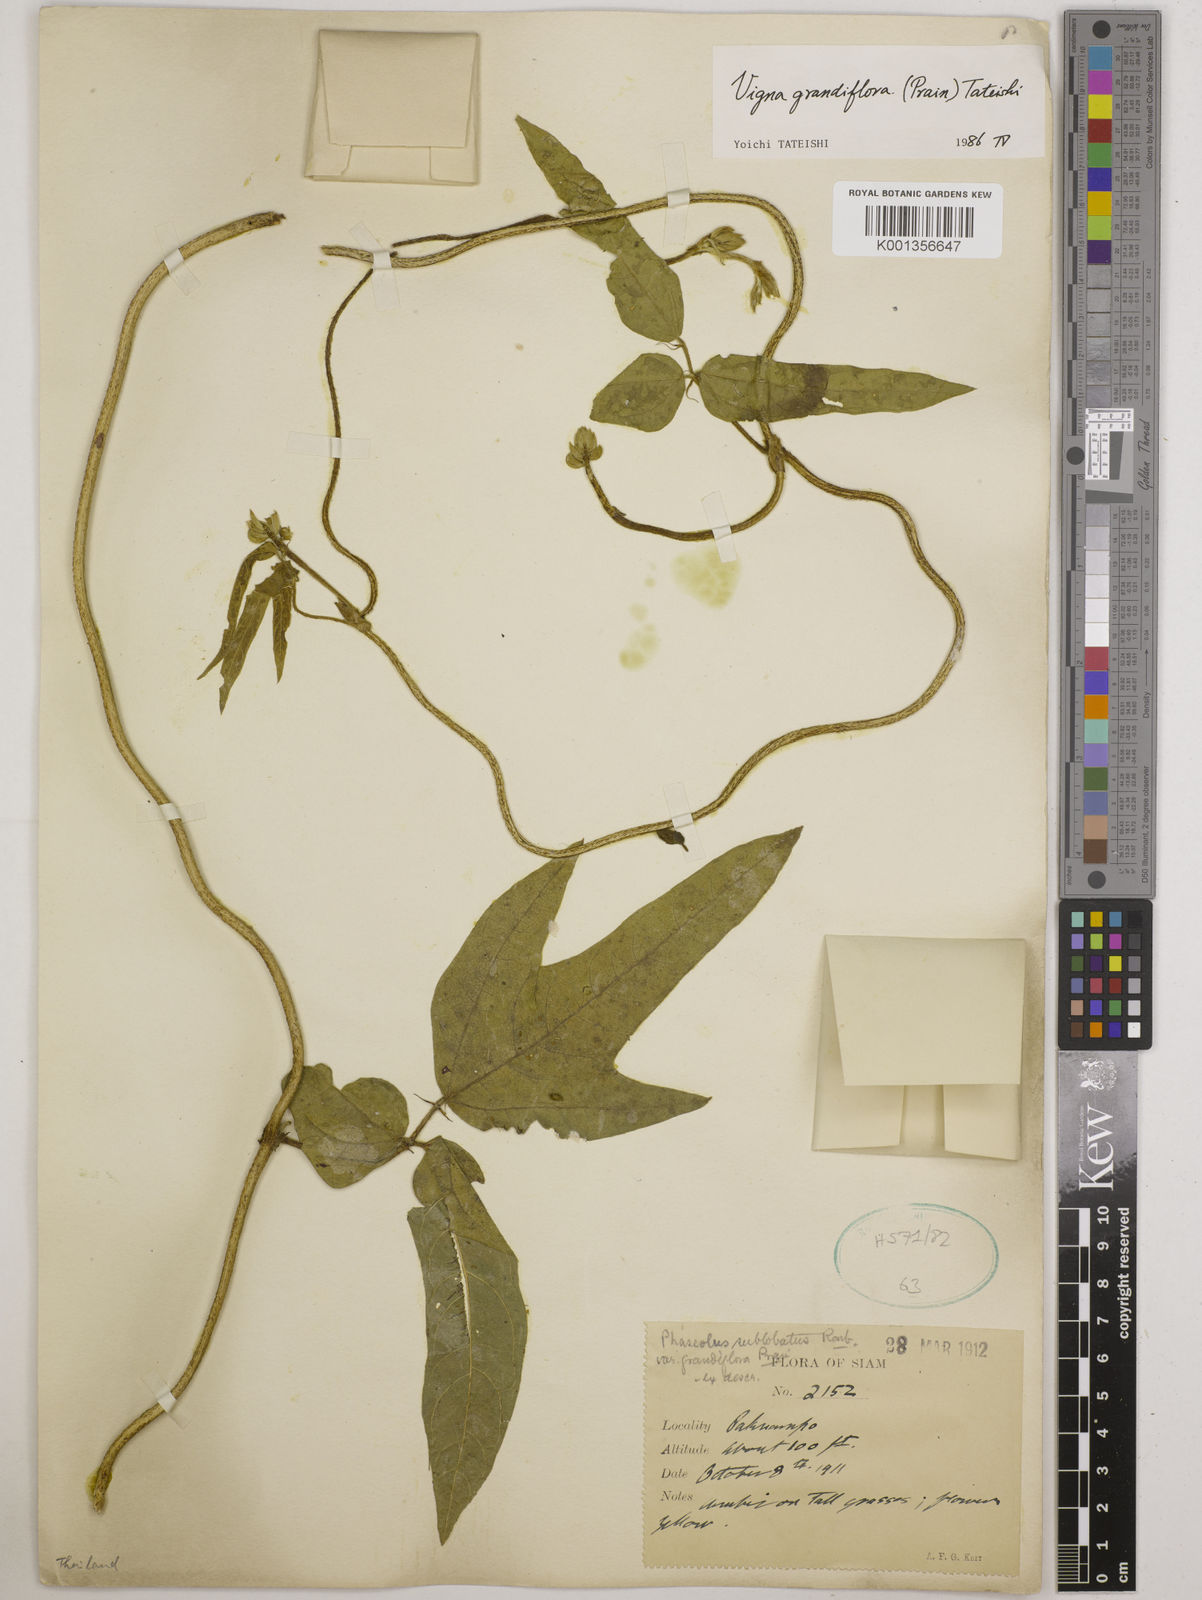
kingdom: Plantae
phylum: Tracheophyta
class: Magnoliopsida
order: Fabales
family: Fabaceae
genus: Vigna
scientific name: Vigna
